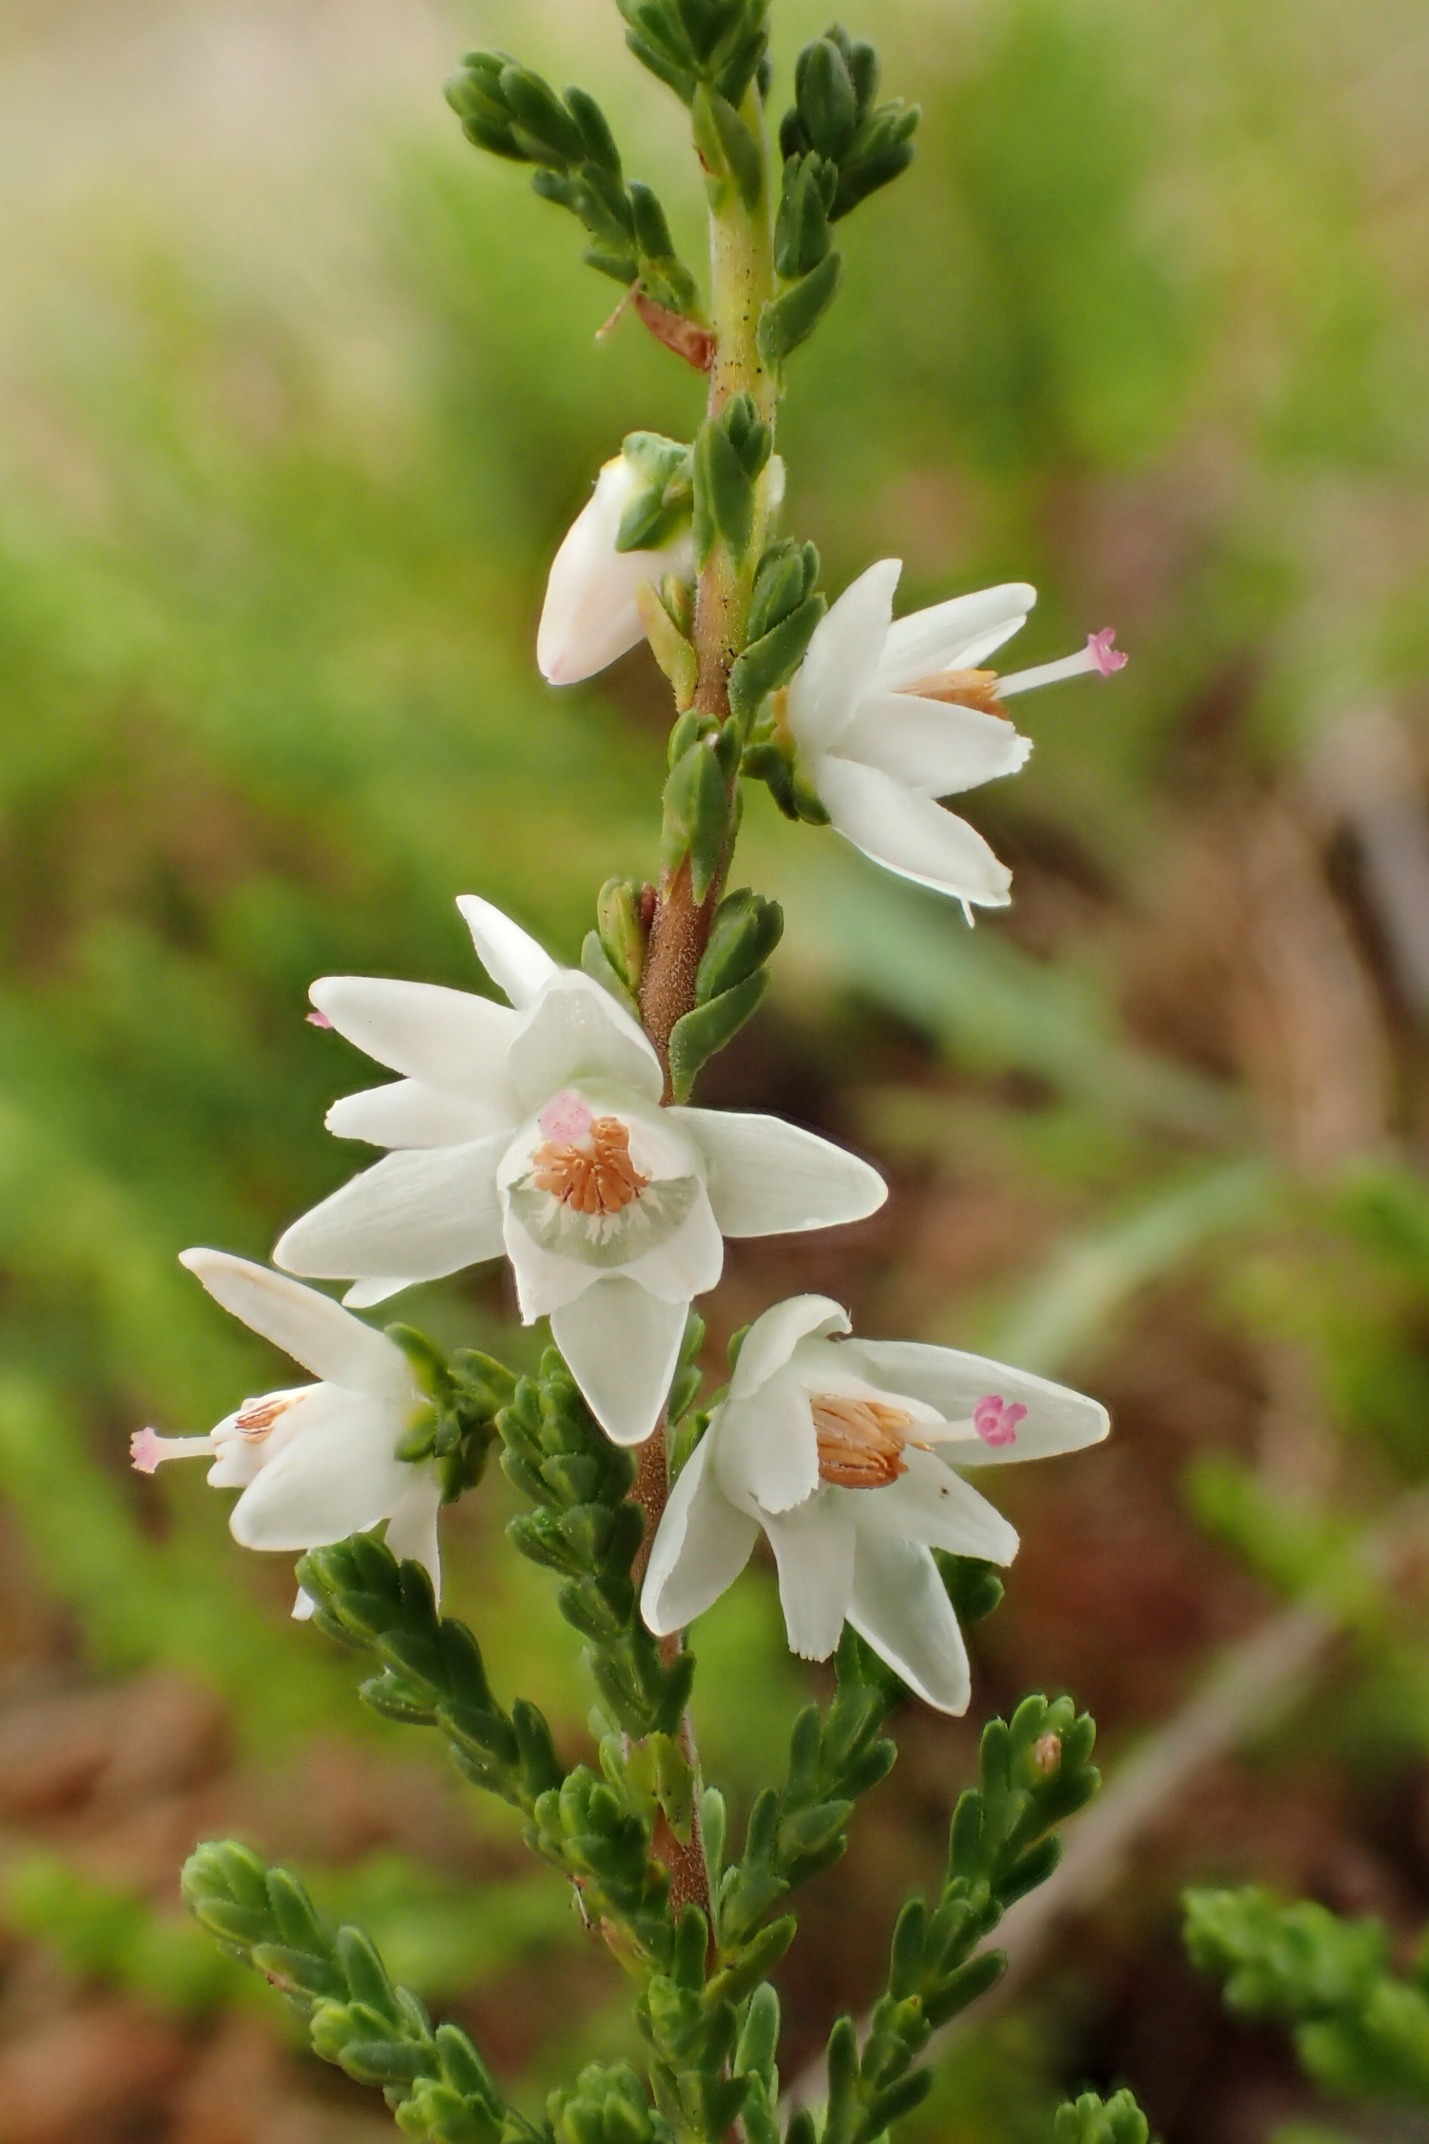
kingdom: Plantae
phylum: Tracheophyta
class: Magnoliopsida
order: Ericales
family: Ericaceae
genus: Calluna
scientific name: Calluna vulgaris
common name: Hedelyng
